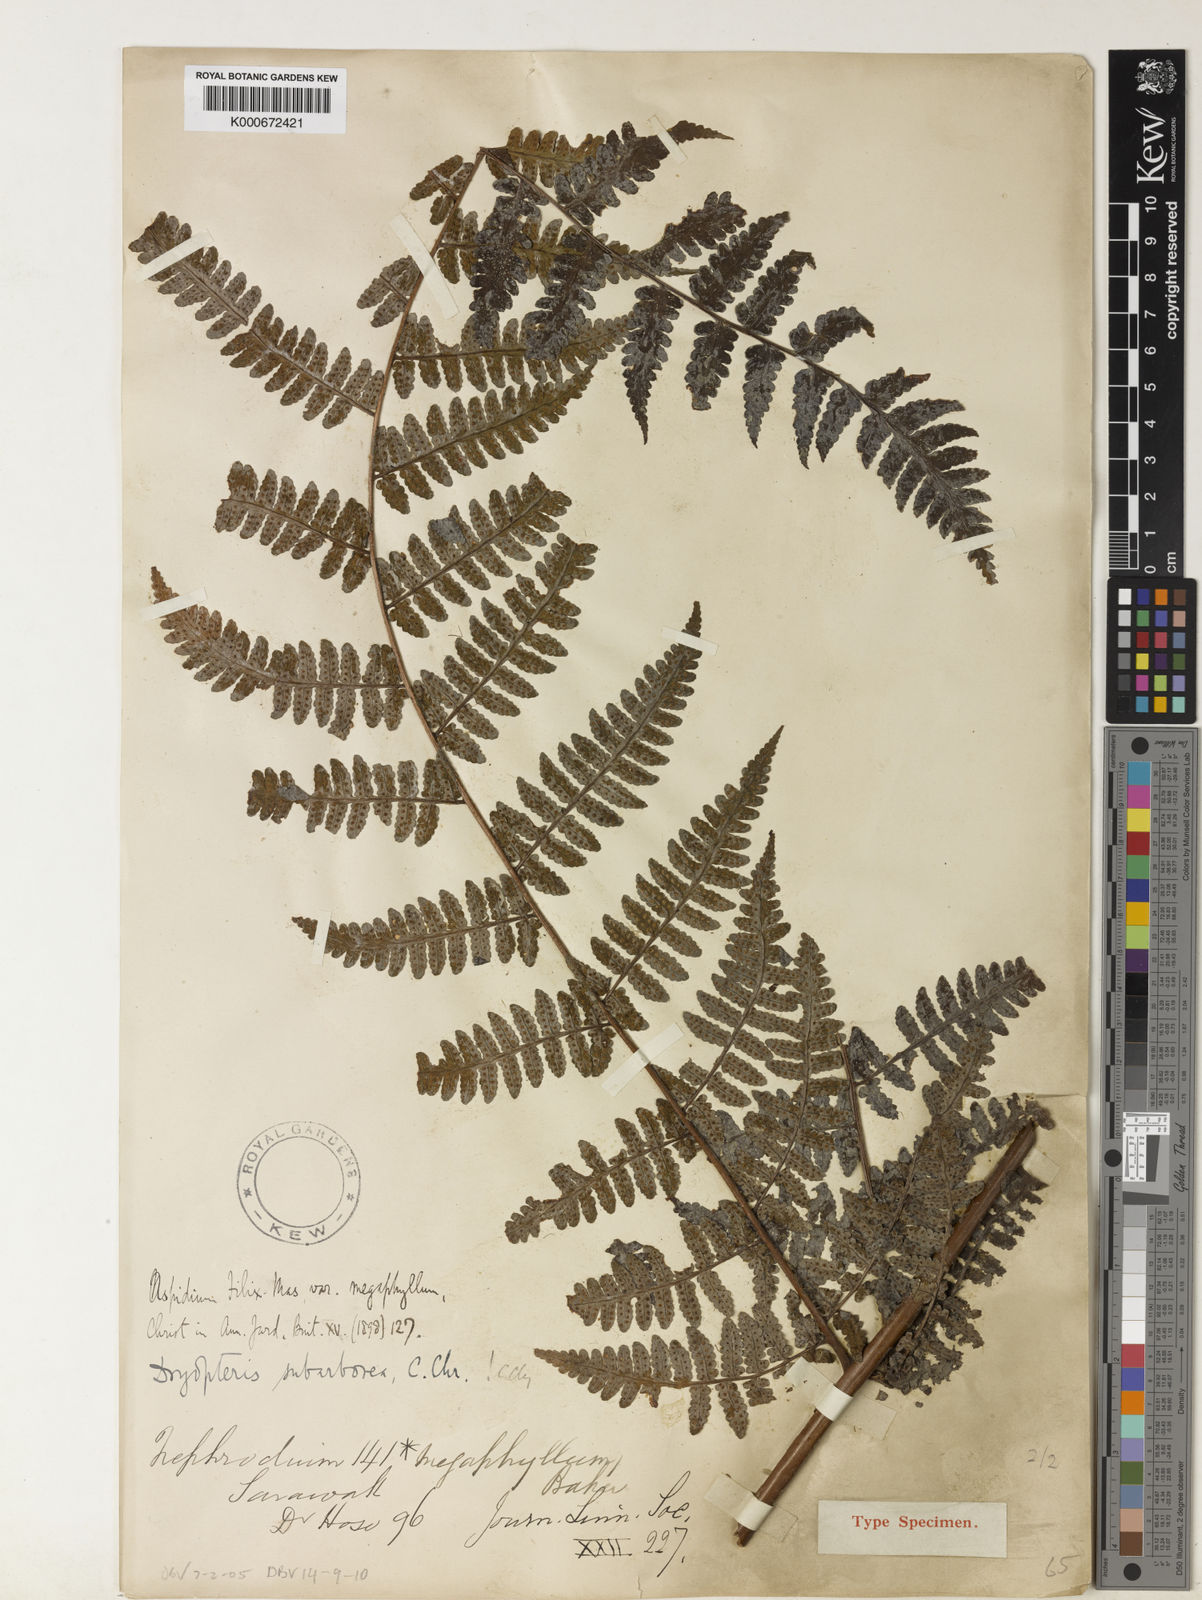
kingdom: Plantae
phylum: Tracheophyta
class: Polypodiopsida
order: Polypodiales
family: Dryopteridaceae
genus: Dryopteris
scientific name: Dryopteris subarborea
